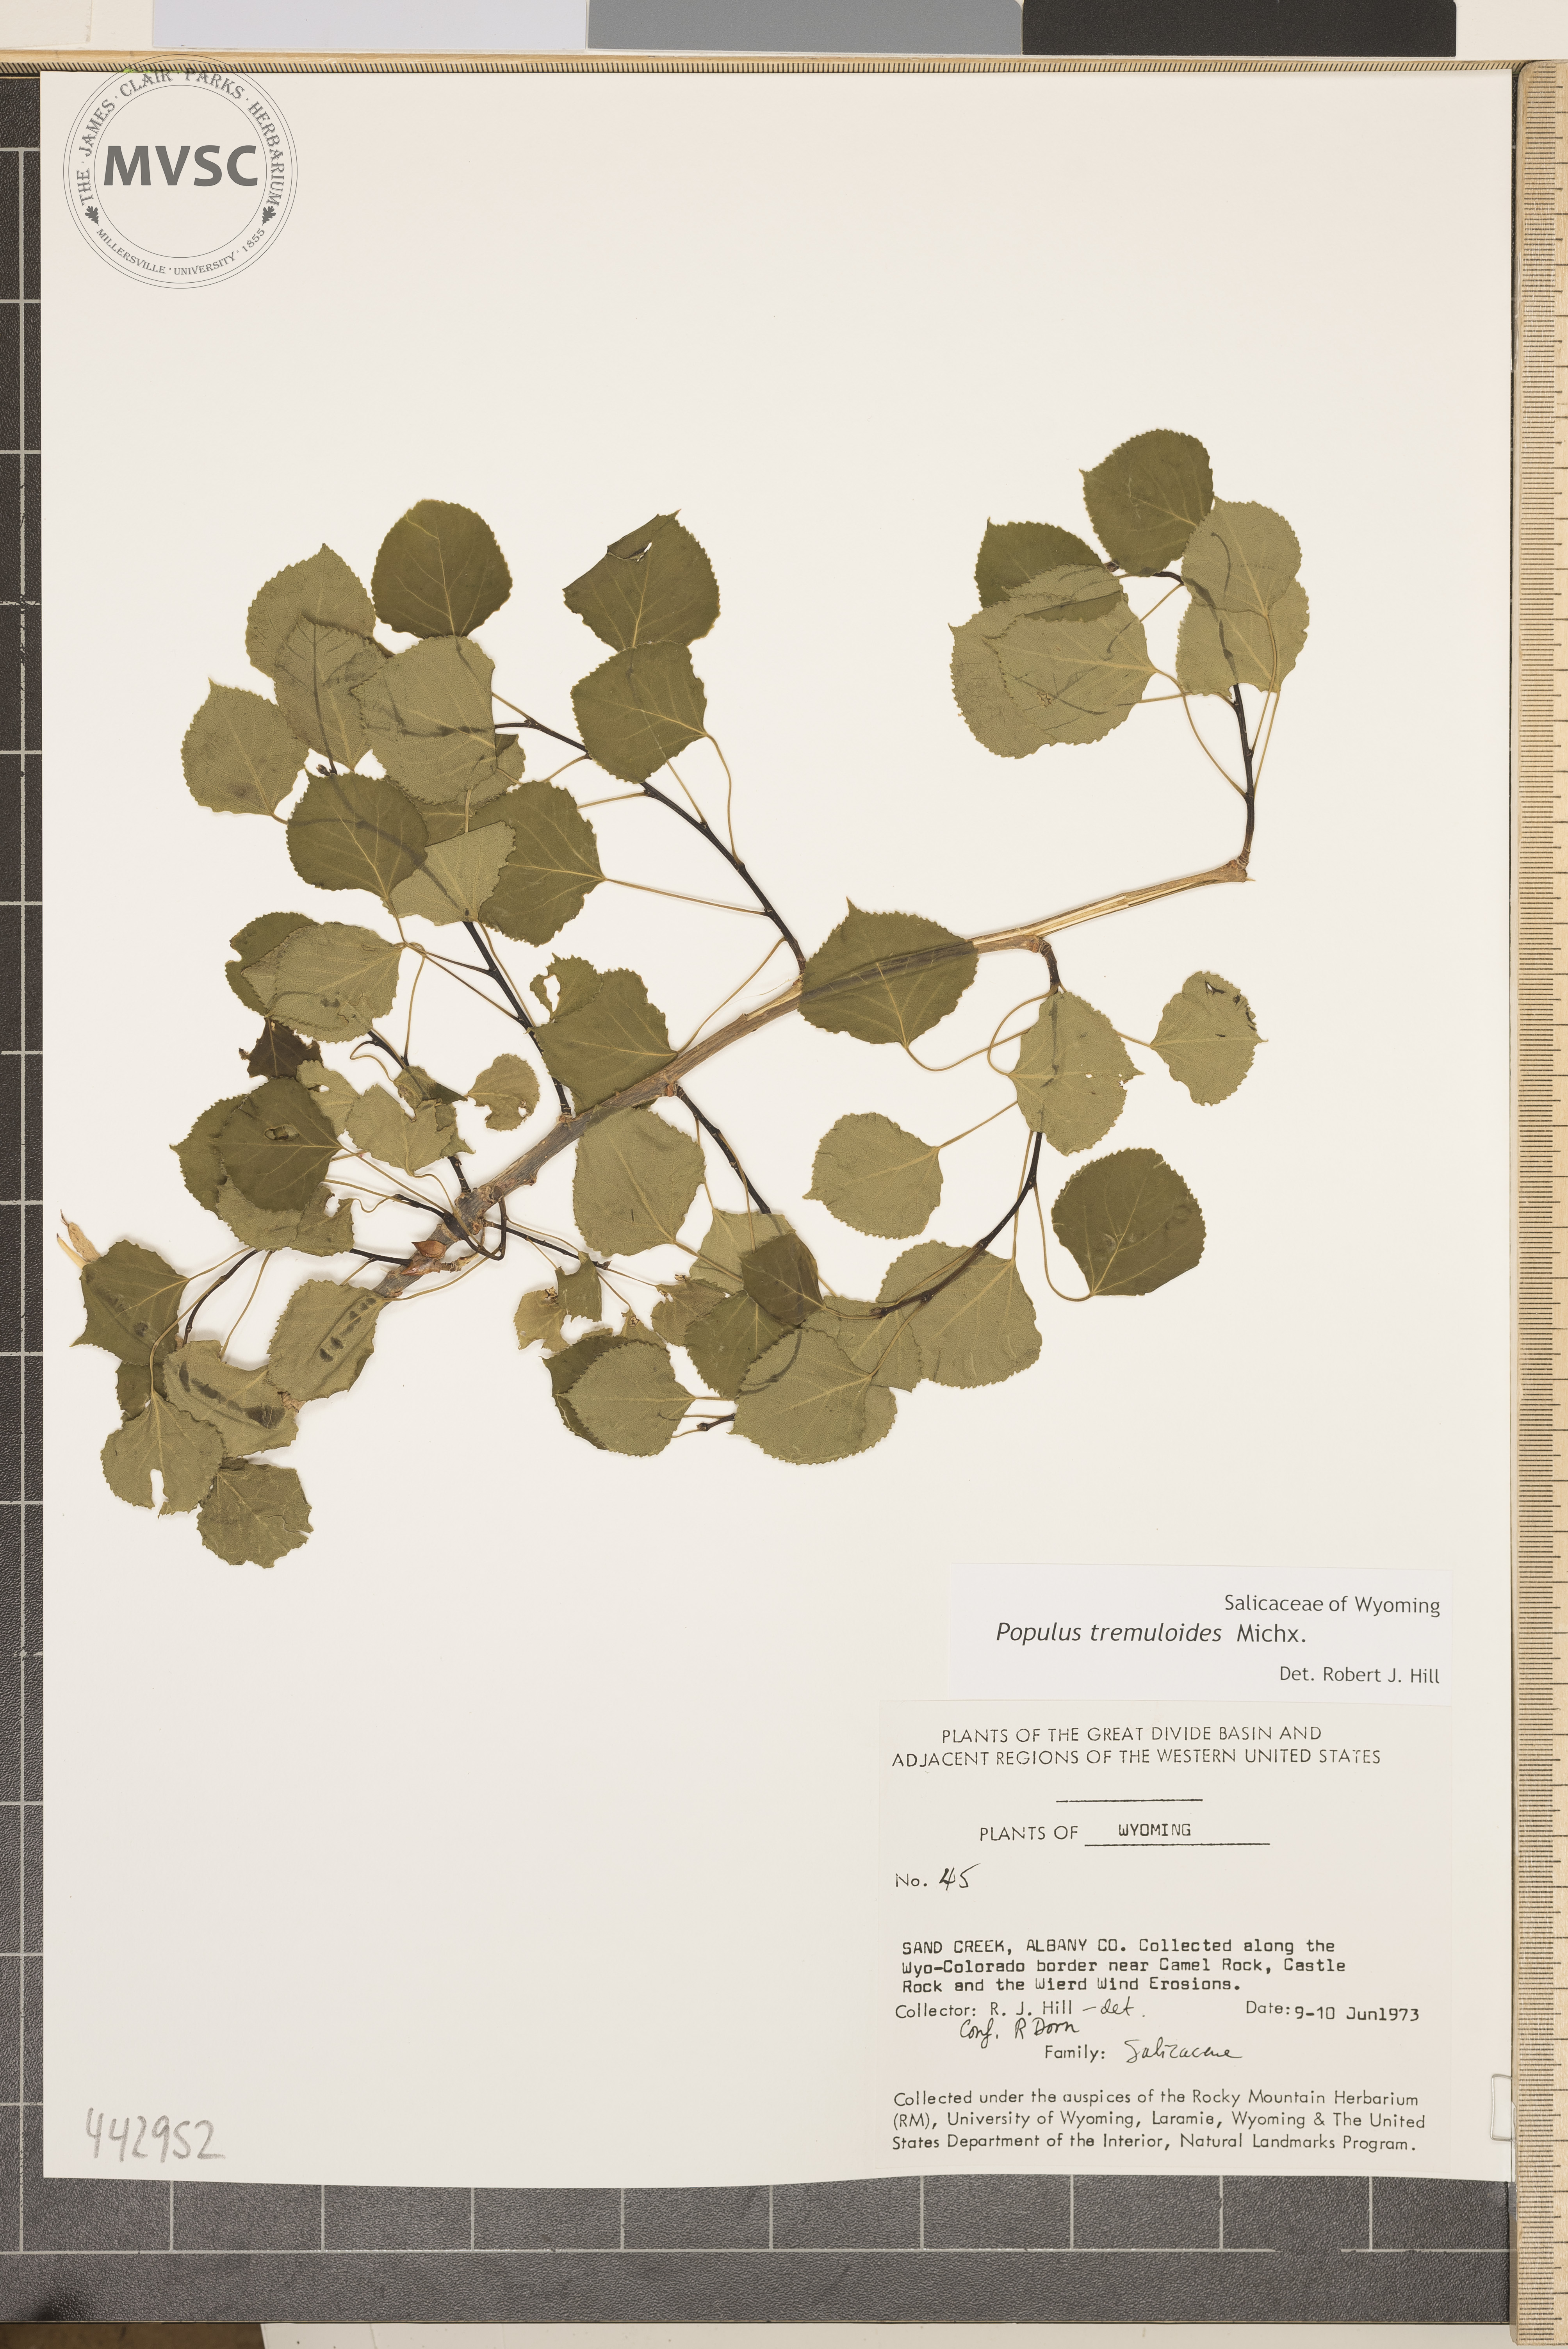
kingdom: Plantae
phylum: Tracheophyta
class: Magnoliopsida
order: Malpighiales
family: Salicaceae
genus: Populus
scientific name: Populus tremuloides
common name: Quaking aspen
